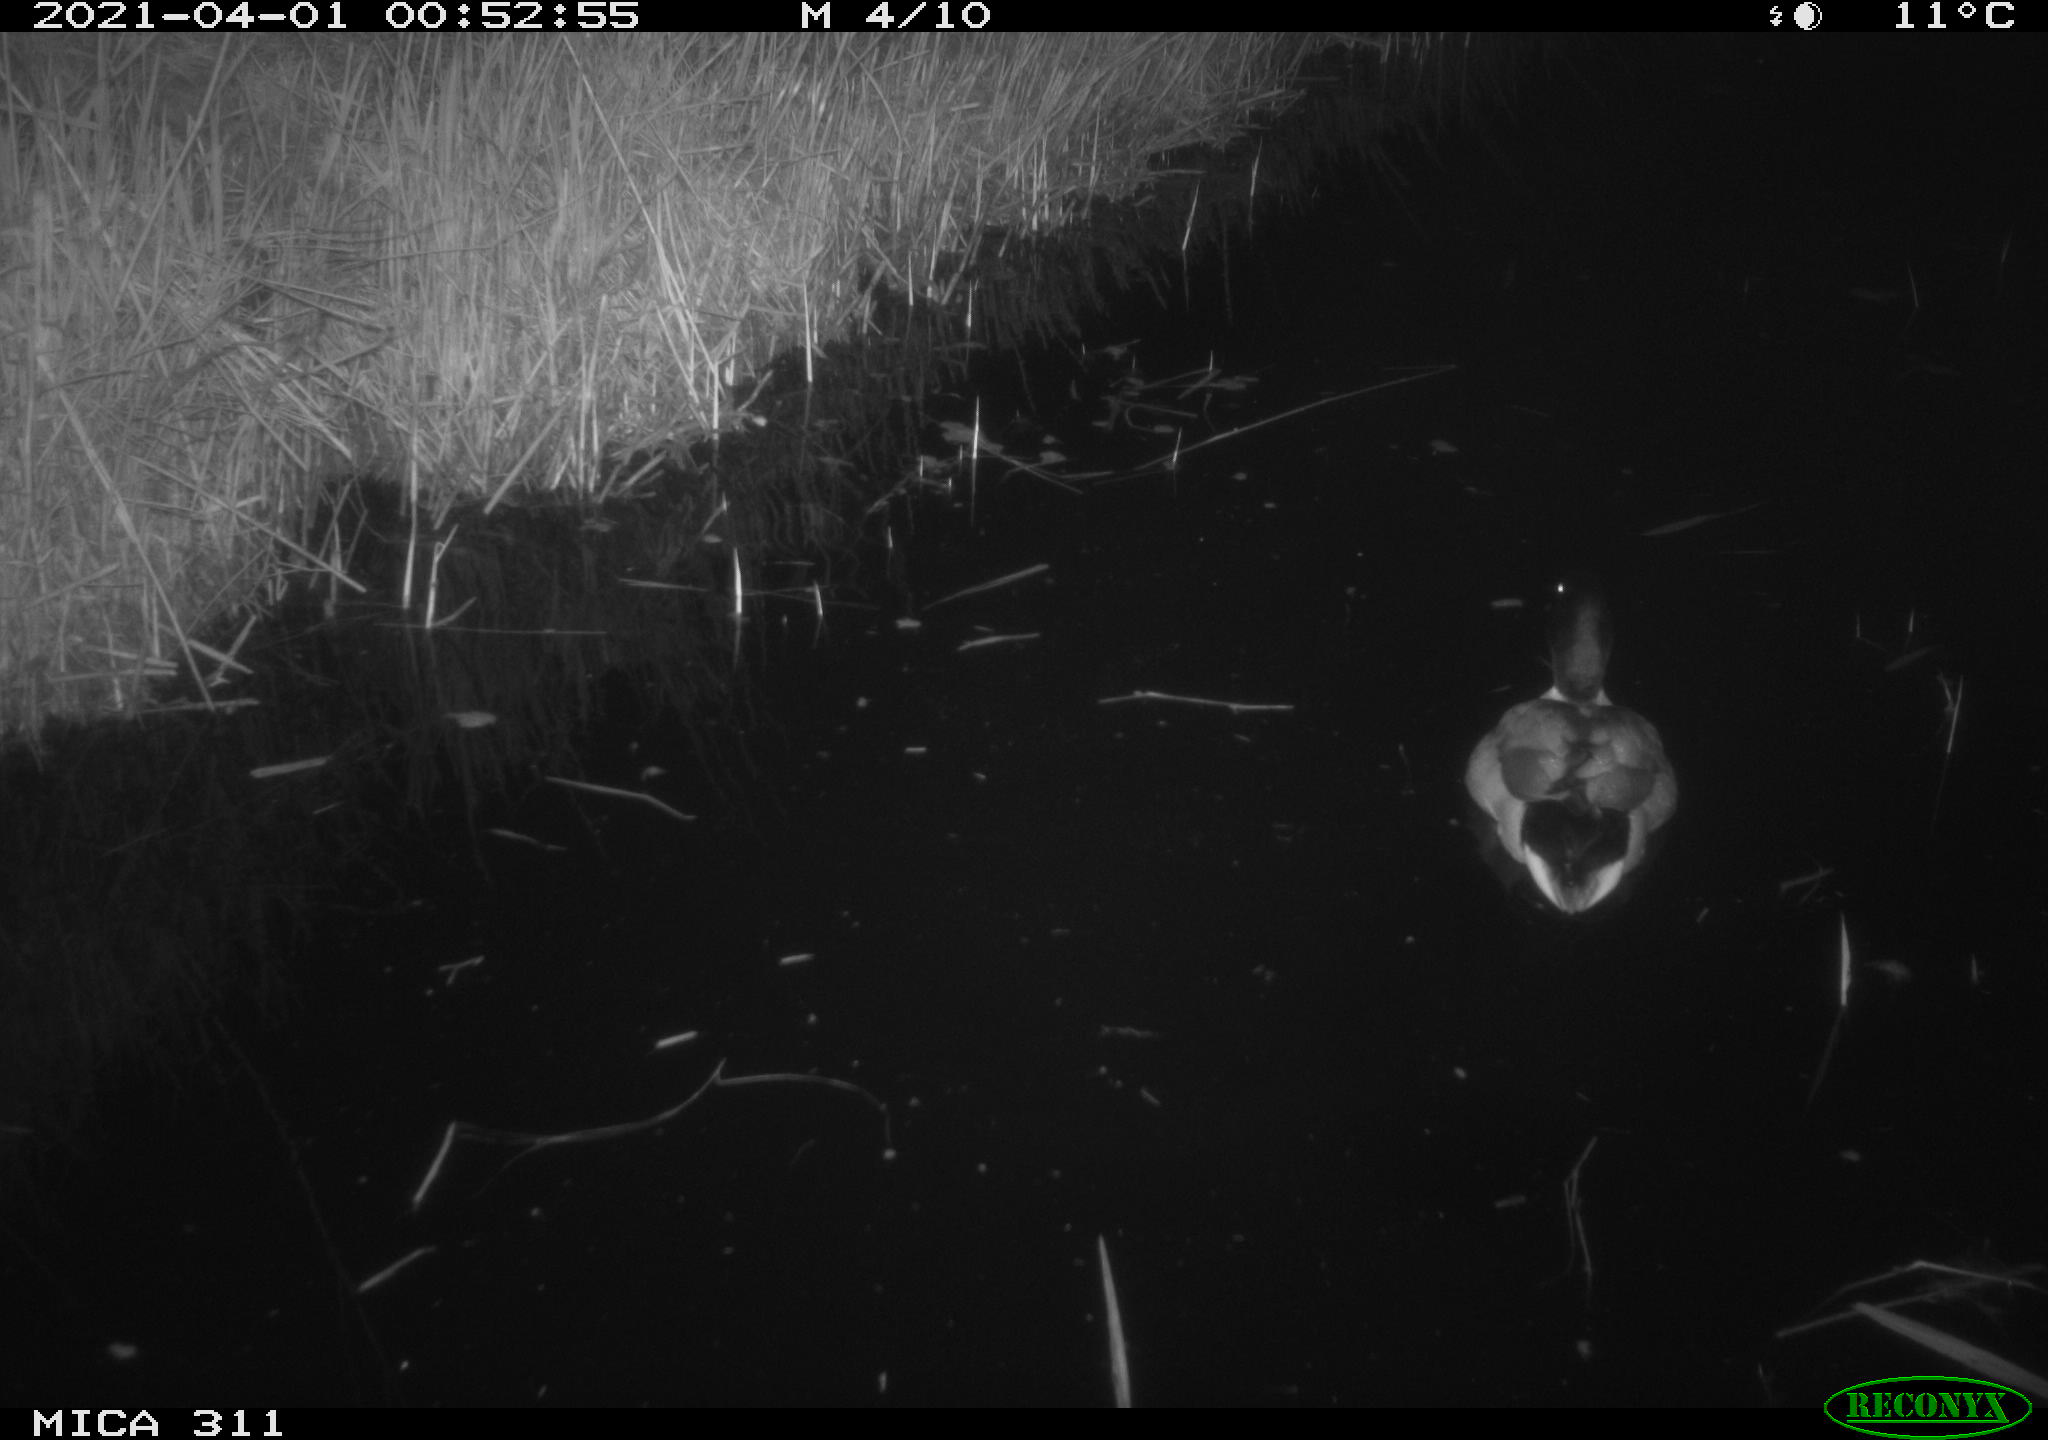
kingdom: Animalia
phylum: Chordata
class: Aves
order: Anseriformes
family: Anatidae
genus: Anas
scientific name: Anas platyrhynchos
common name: Mallard
